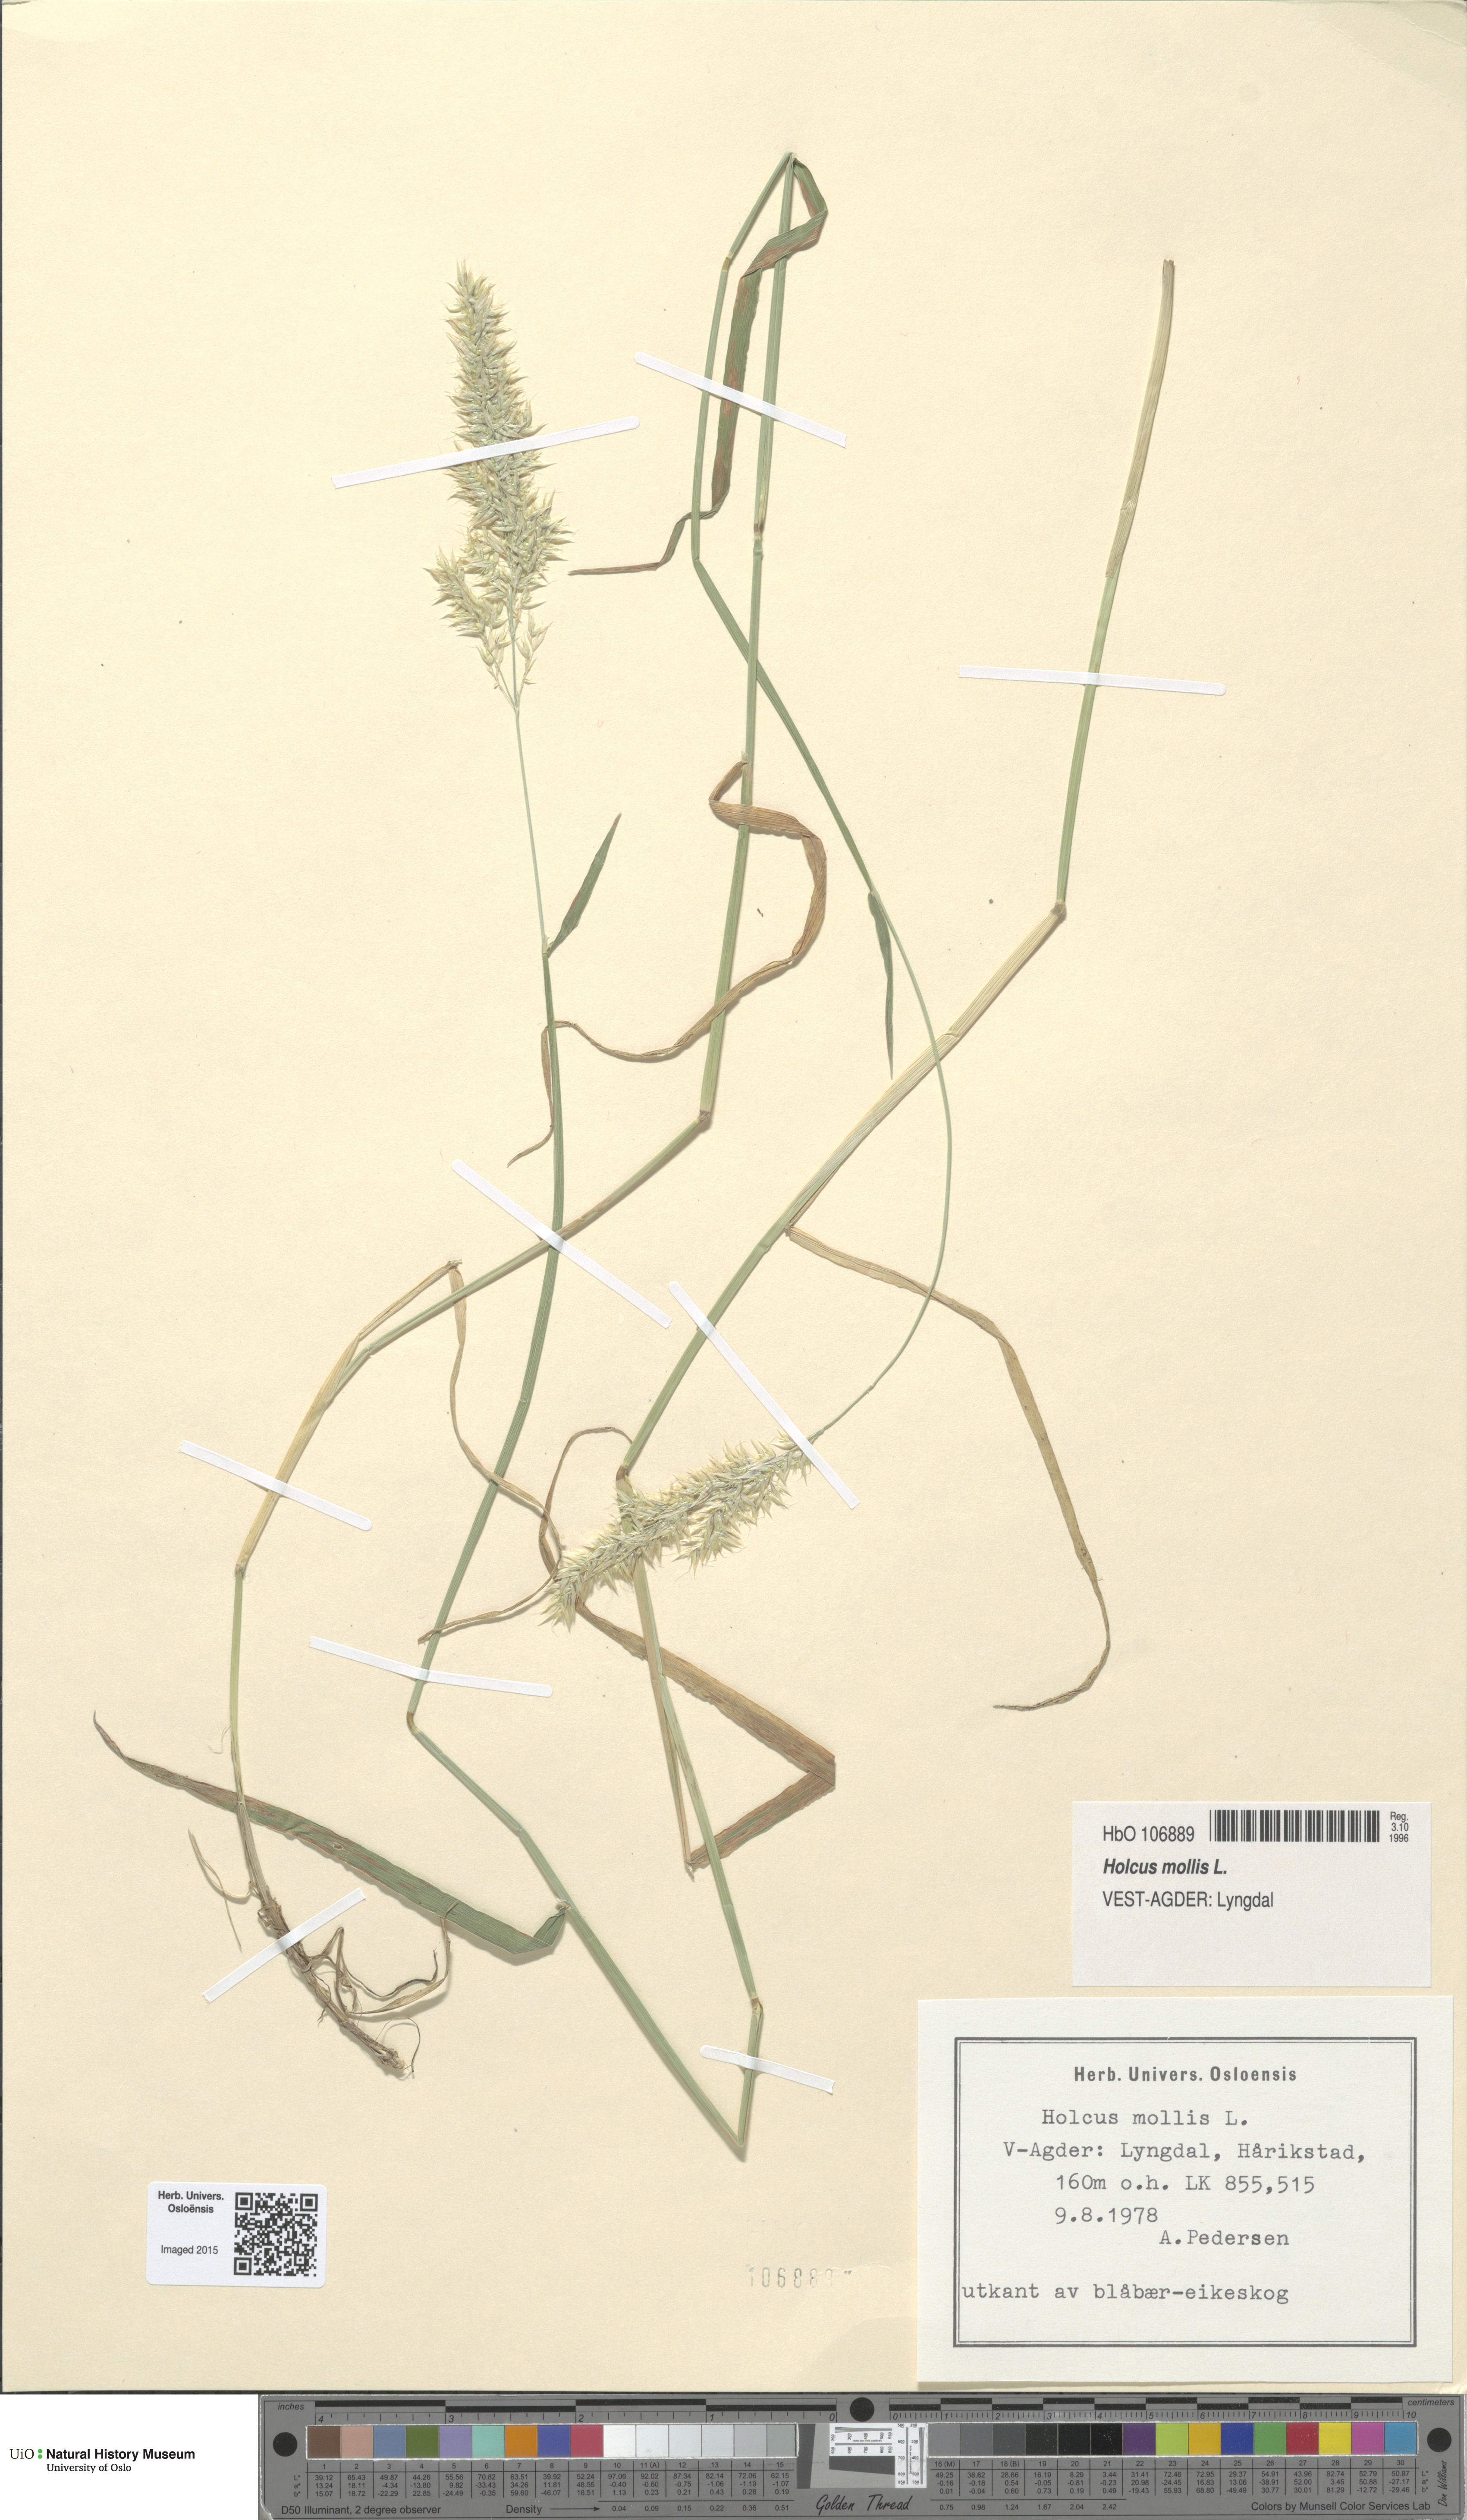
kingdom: Plantae
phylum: Tracheophyta
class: Liliopsida
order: Poales
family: Poaceae
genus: Holcus
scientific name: Holcus mollis
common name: Creeping velvetgrass
